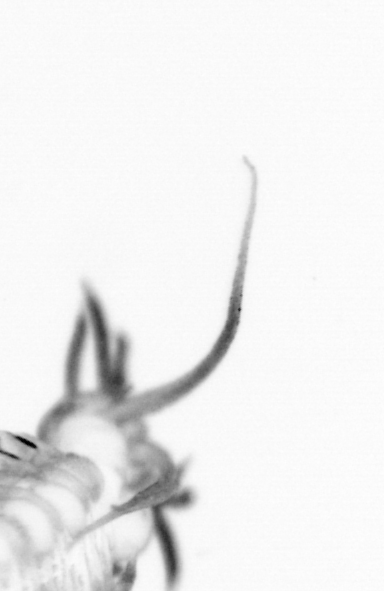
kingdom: Animalia
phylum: Arthropoda
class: Maxillopoda
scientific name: Maxillopoda
